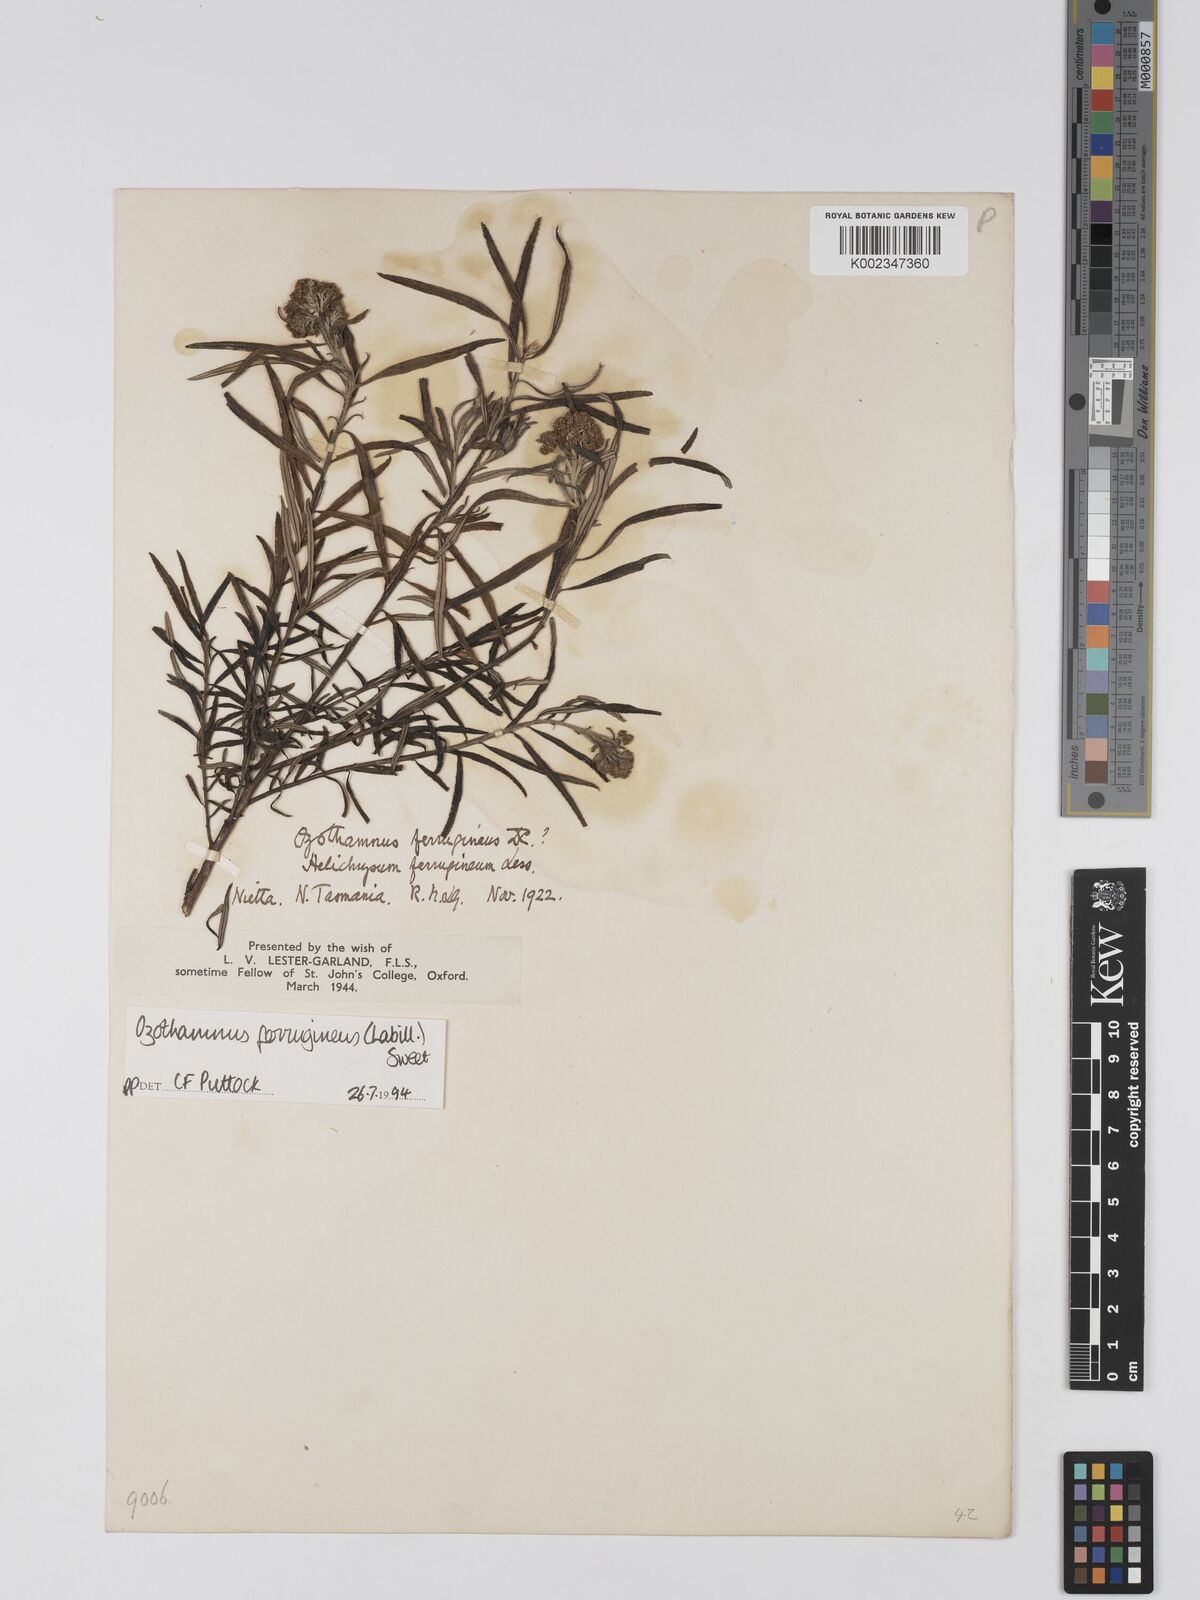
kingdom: Plantae
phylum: Tracheophyta
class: Magnoliopsida
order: Asterales
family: Asteraceae
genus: Ozothamnus
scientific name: Ozothamnus argophyllus
